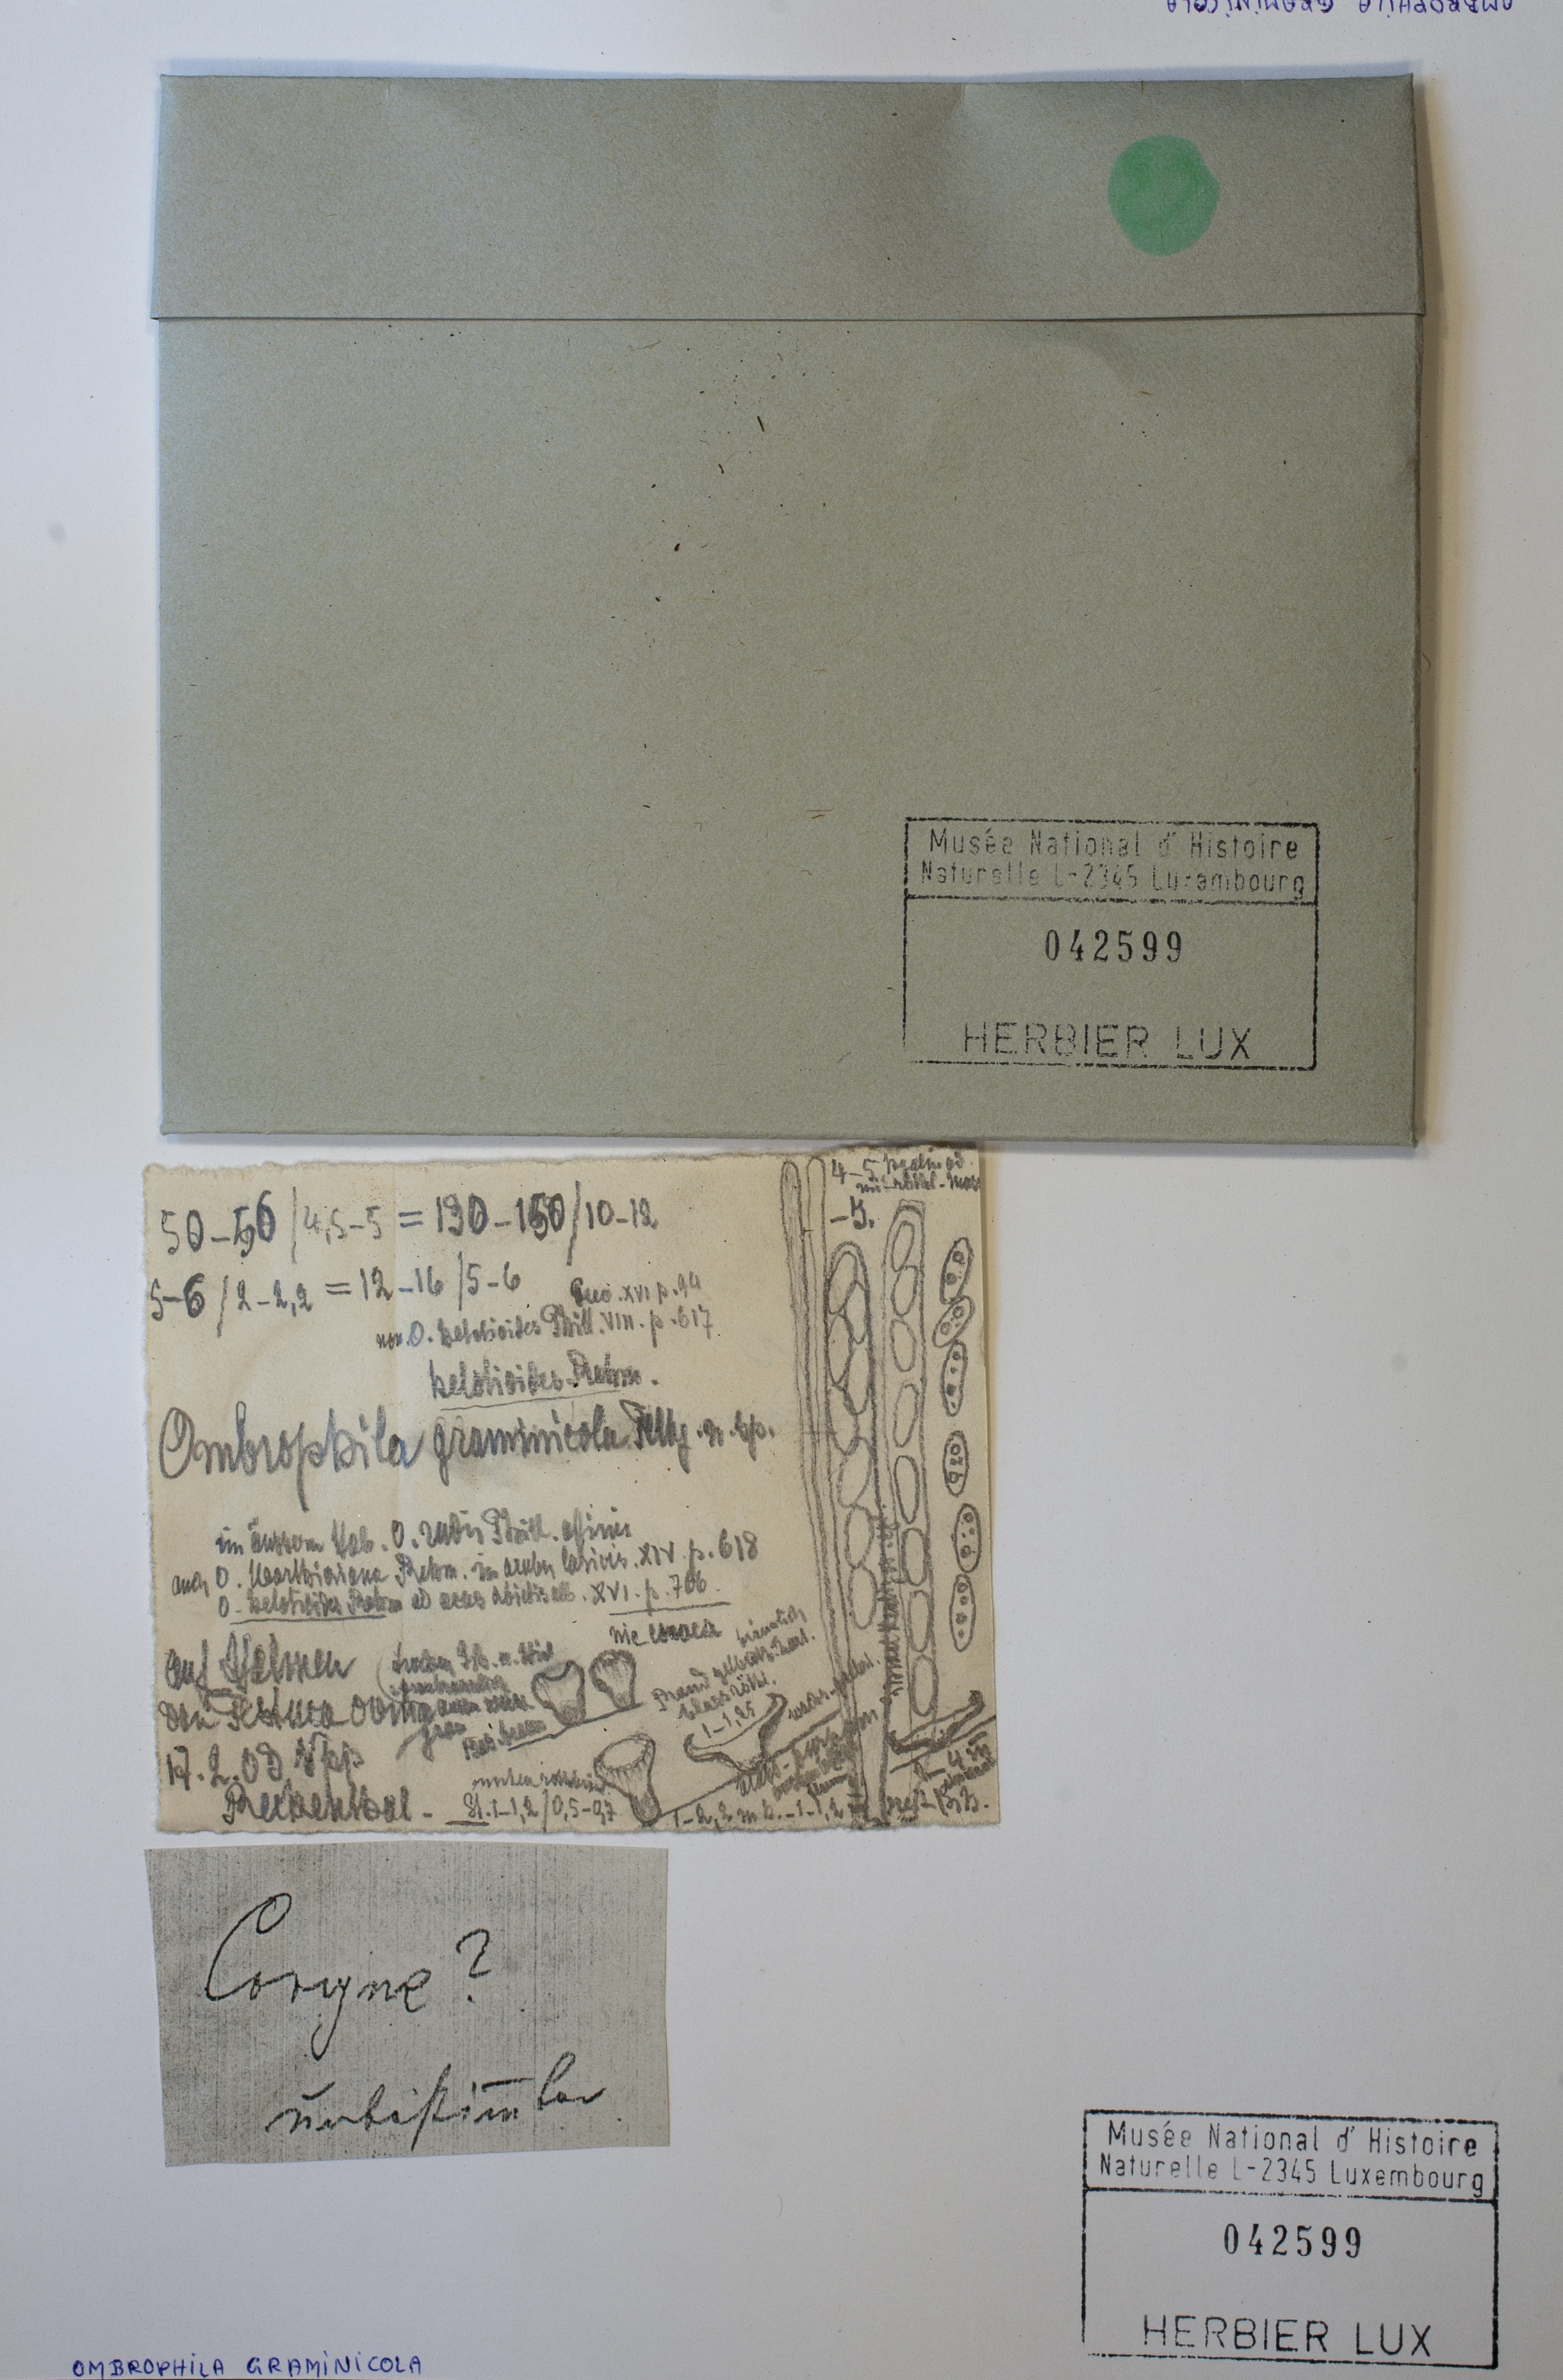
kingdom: Fungi
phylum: Ascomycota
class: Leotiomycetes
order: Helotiales
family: Gelatinodiscaceae
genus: Ombrophila
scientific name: Ombrophila graminicola
